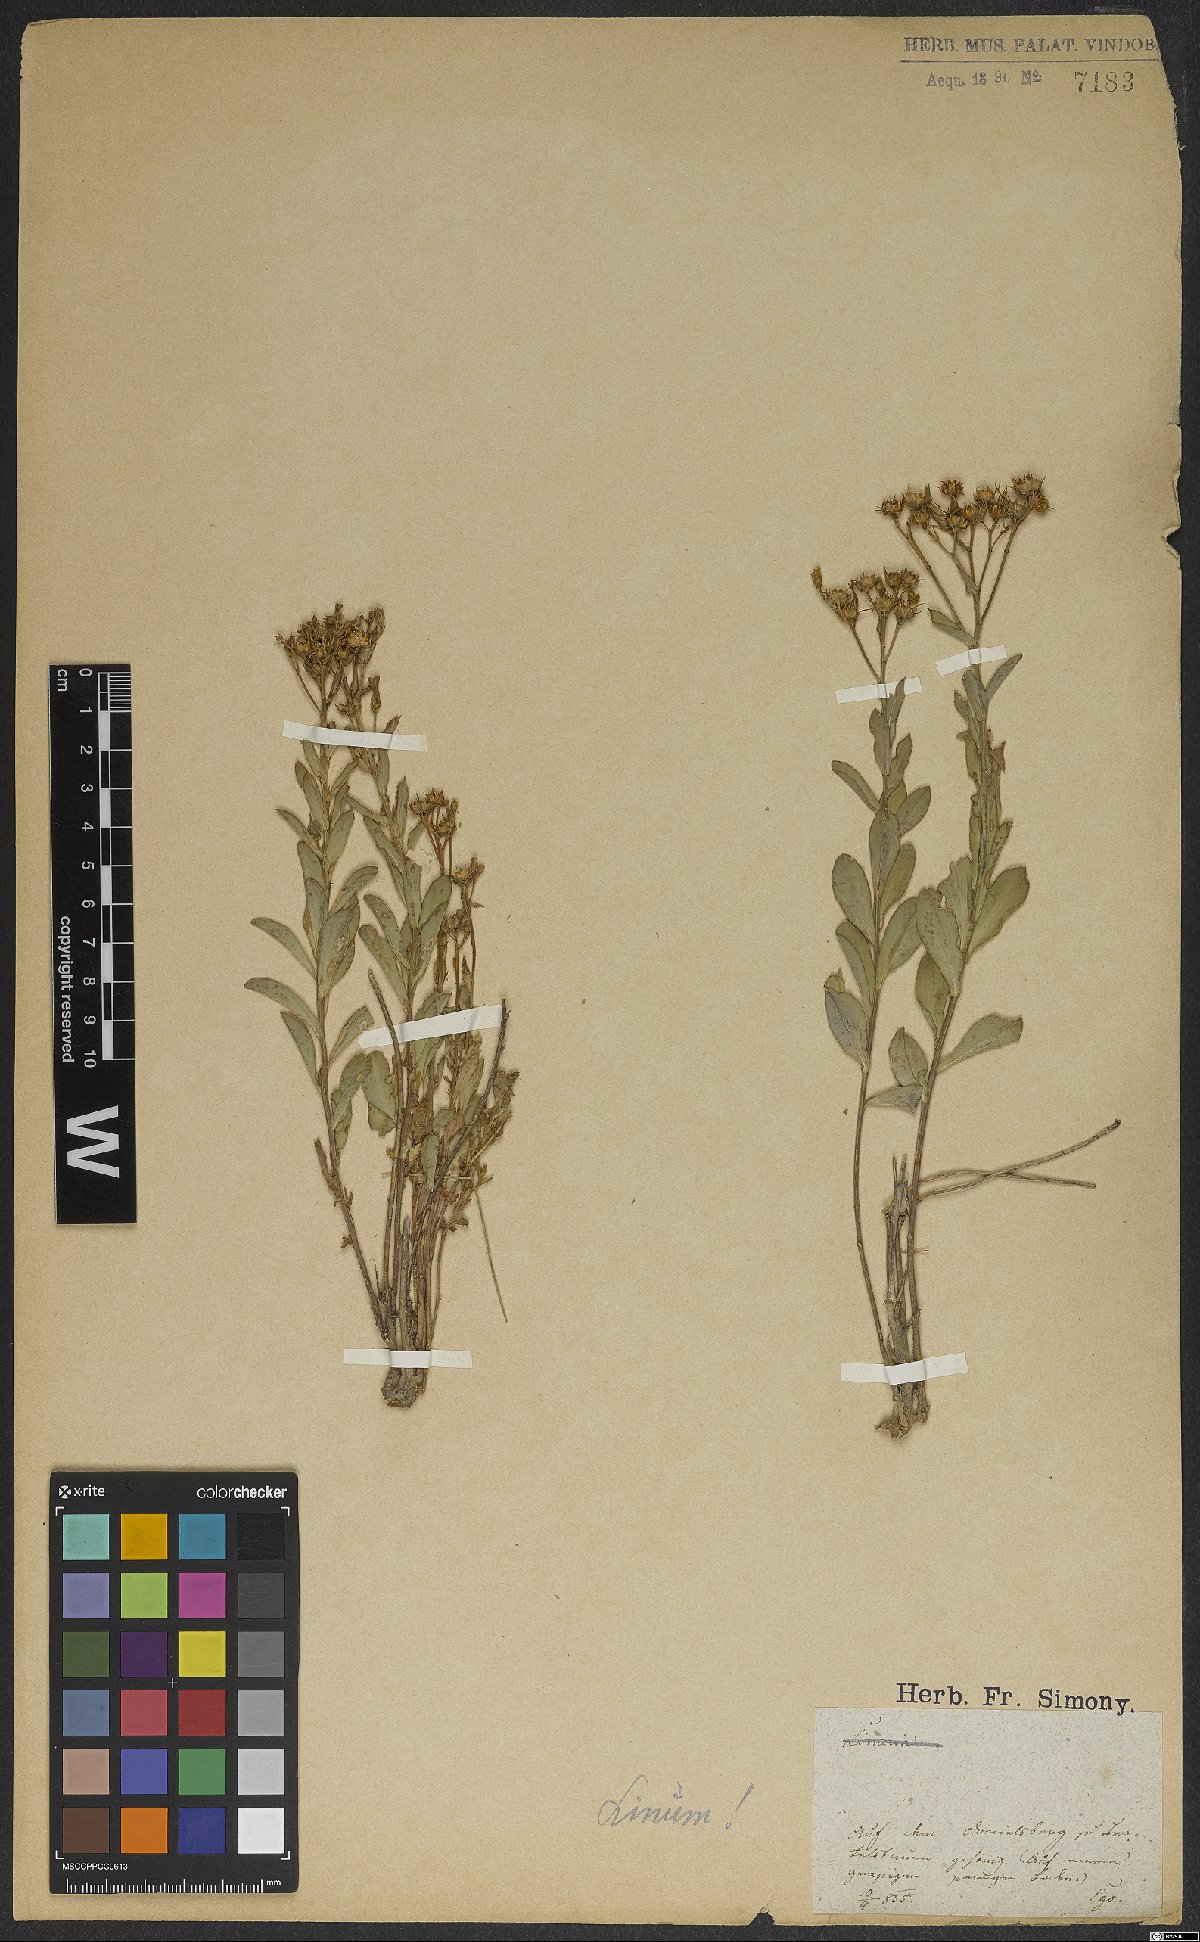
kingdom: Plantae
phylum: Tracheophyta
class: Magnoliopsida
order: Malpighiales
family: Linaceae
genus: Linum
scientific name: Linum
